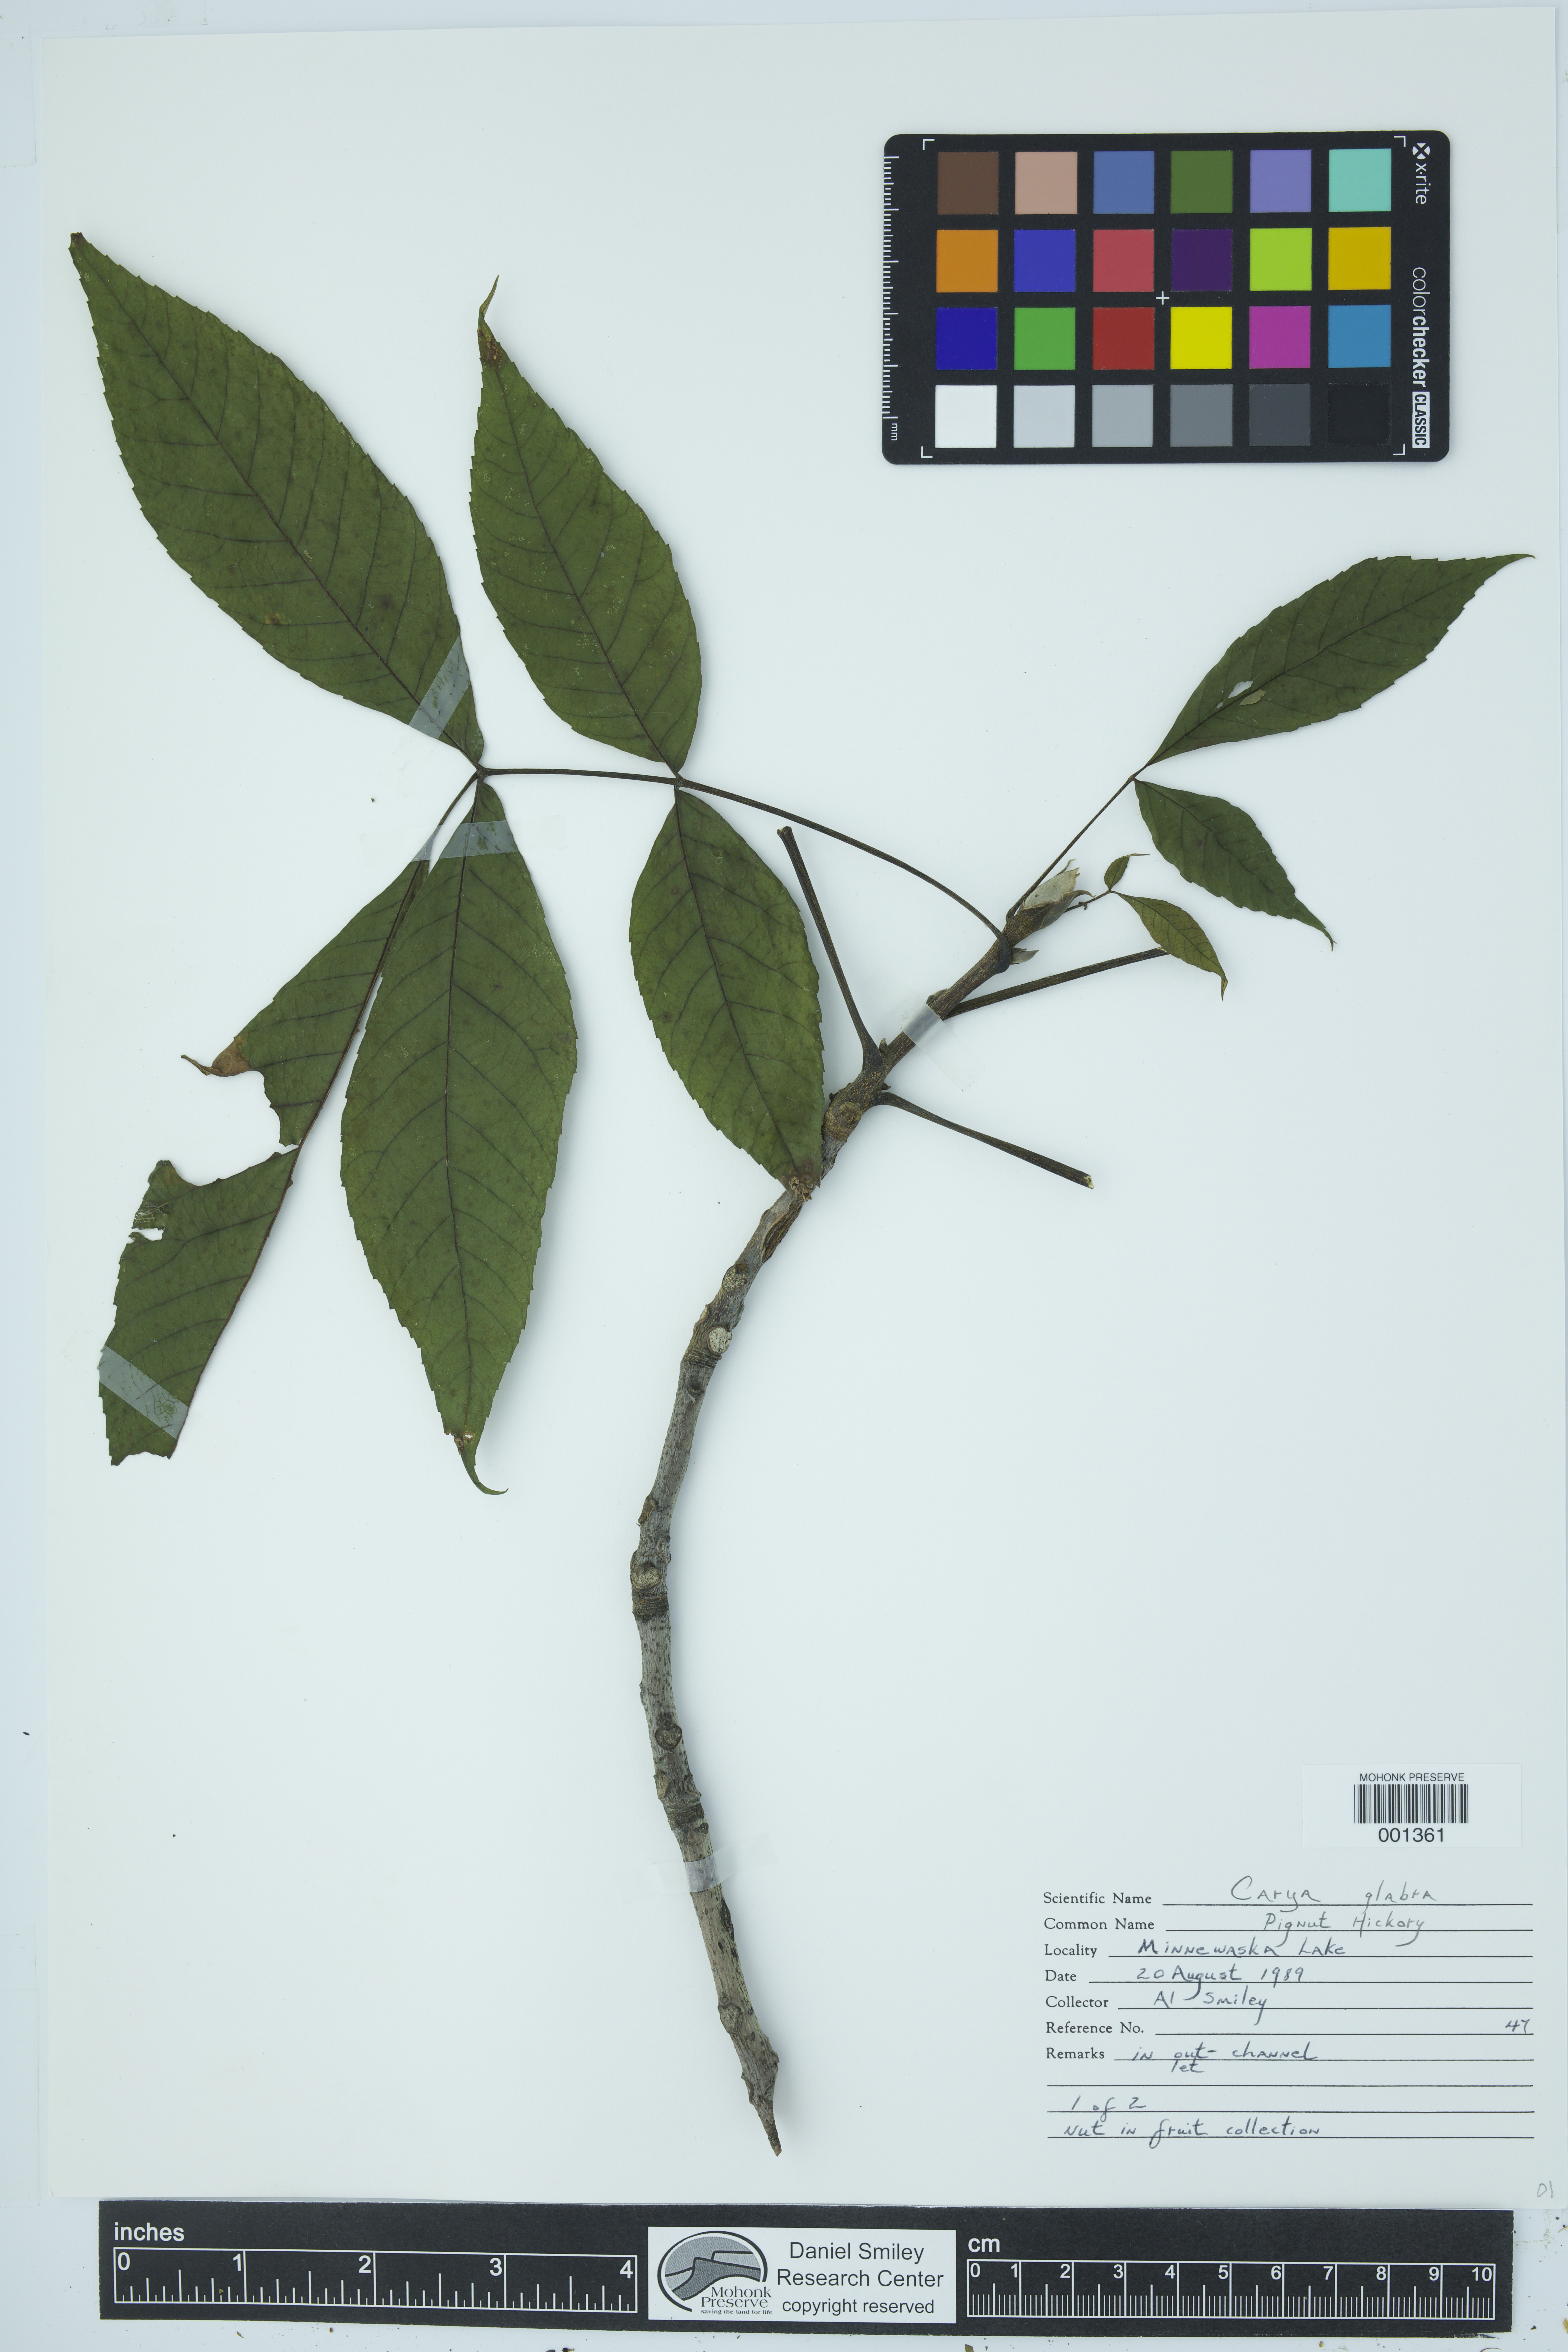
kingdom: Plantae
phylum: Tracheophyta
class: Magnoliopsida
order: Fagales
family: Juglandaceae
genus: Carya
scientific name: Carya glabra
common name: Pignut hickory
